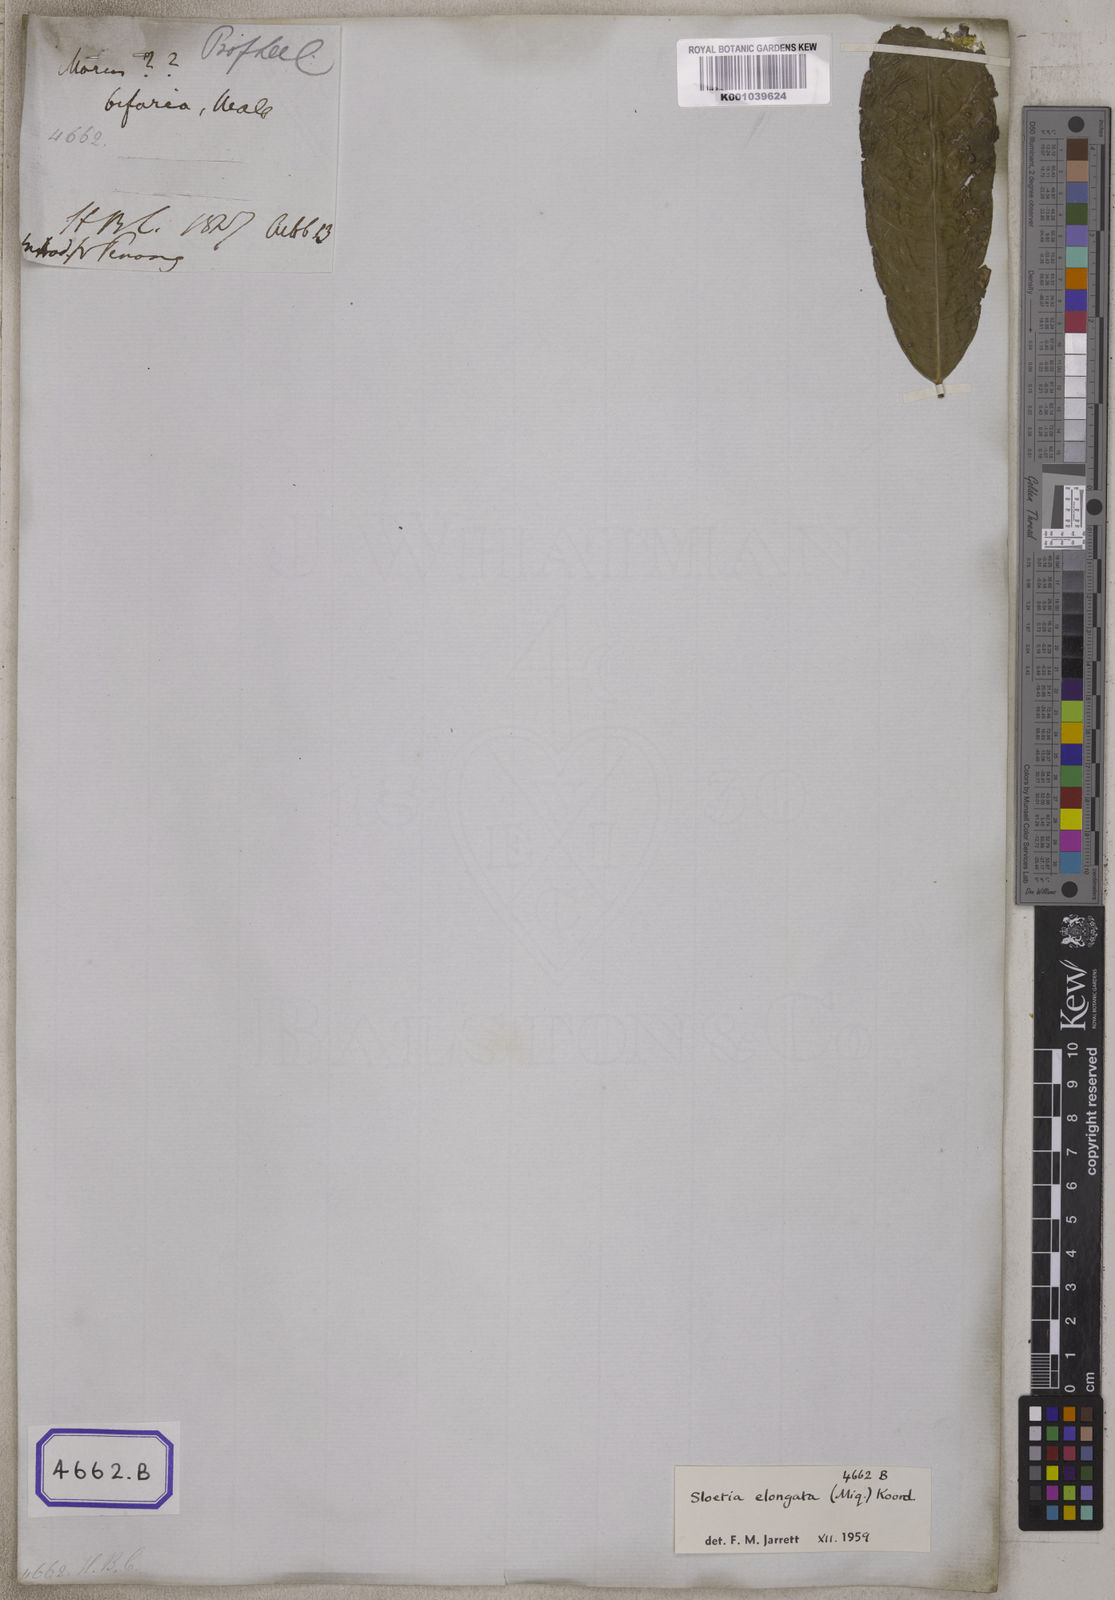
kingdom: Plantae
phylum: Tracheophyta
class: Magnoliopsida
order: Rosales
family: Moraceae
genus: Sloetia
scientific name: Sloetia elongata
